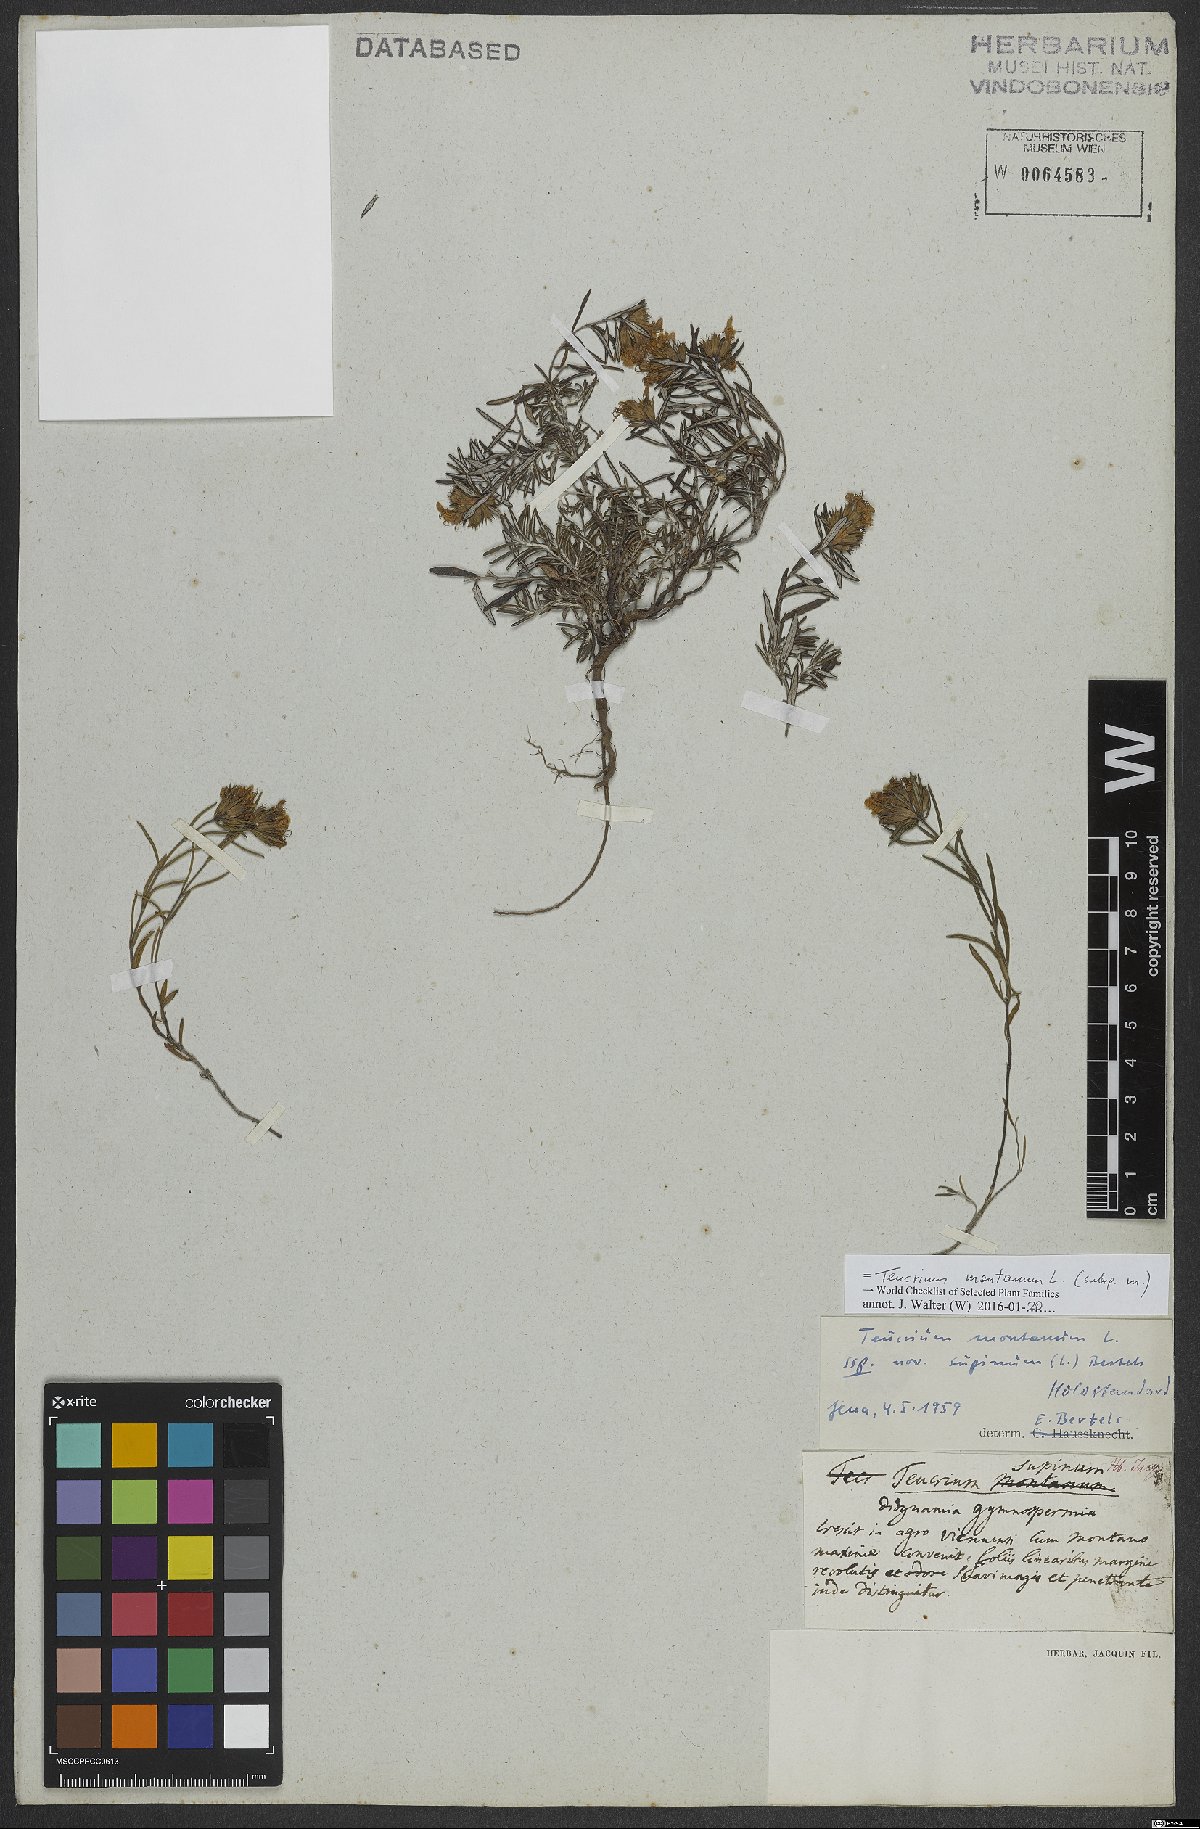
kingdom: Plantae
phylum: Tracheophyta
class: Magnoliopsida
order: Lamiales
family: Lamiaceae
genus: Teucrium
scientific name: Teucrium montanum
